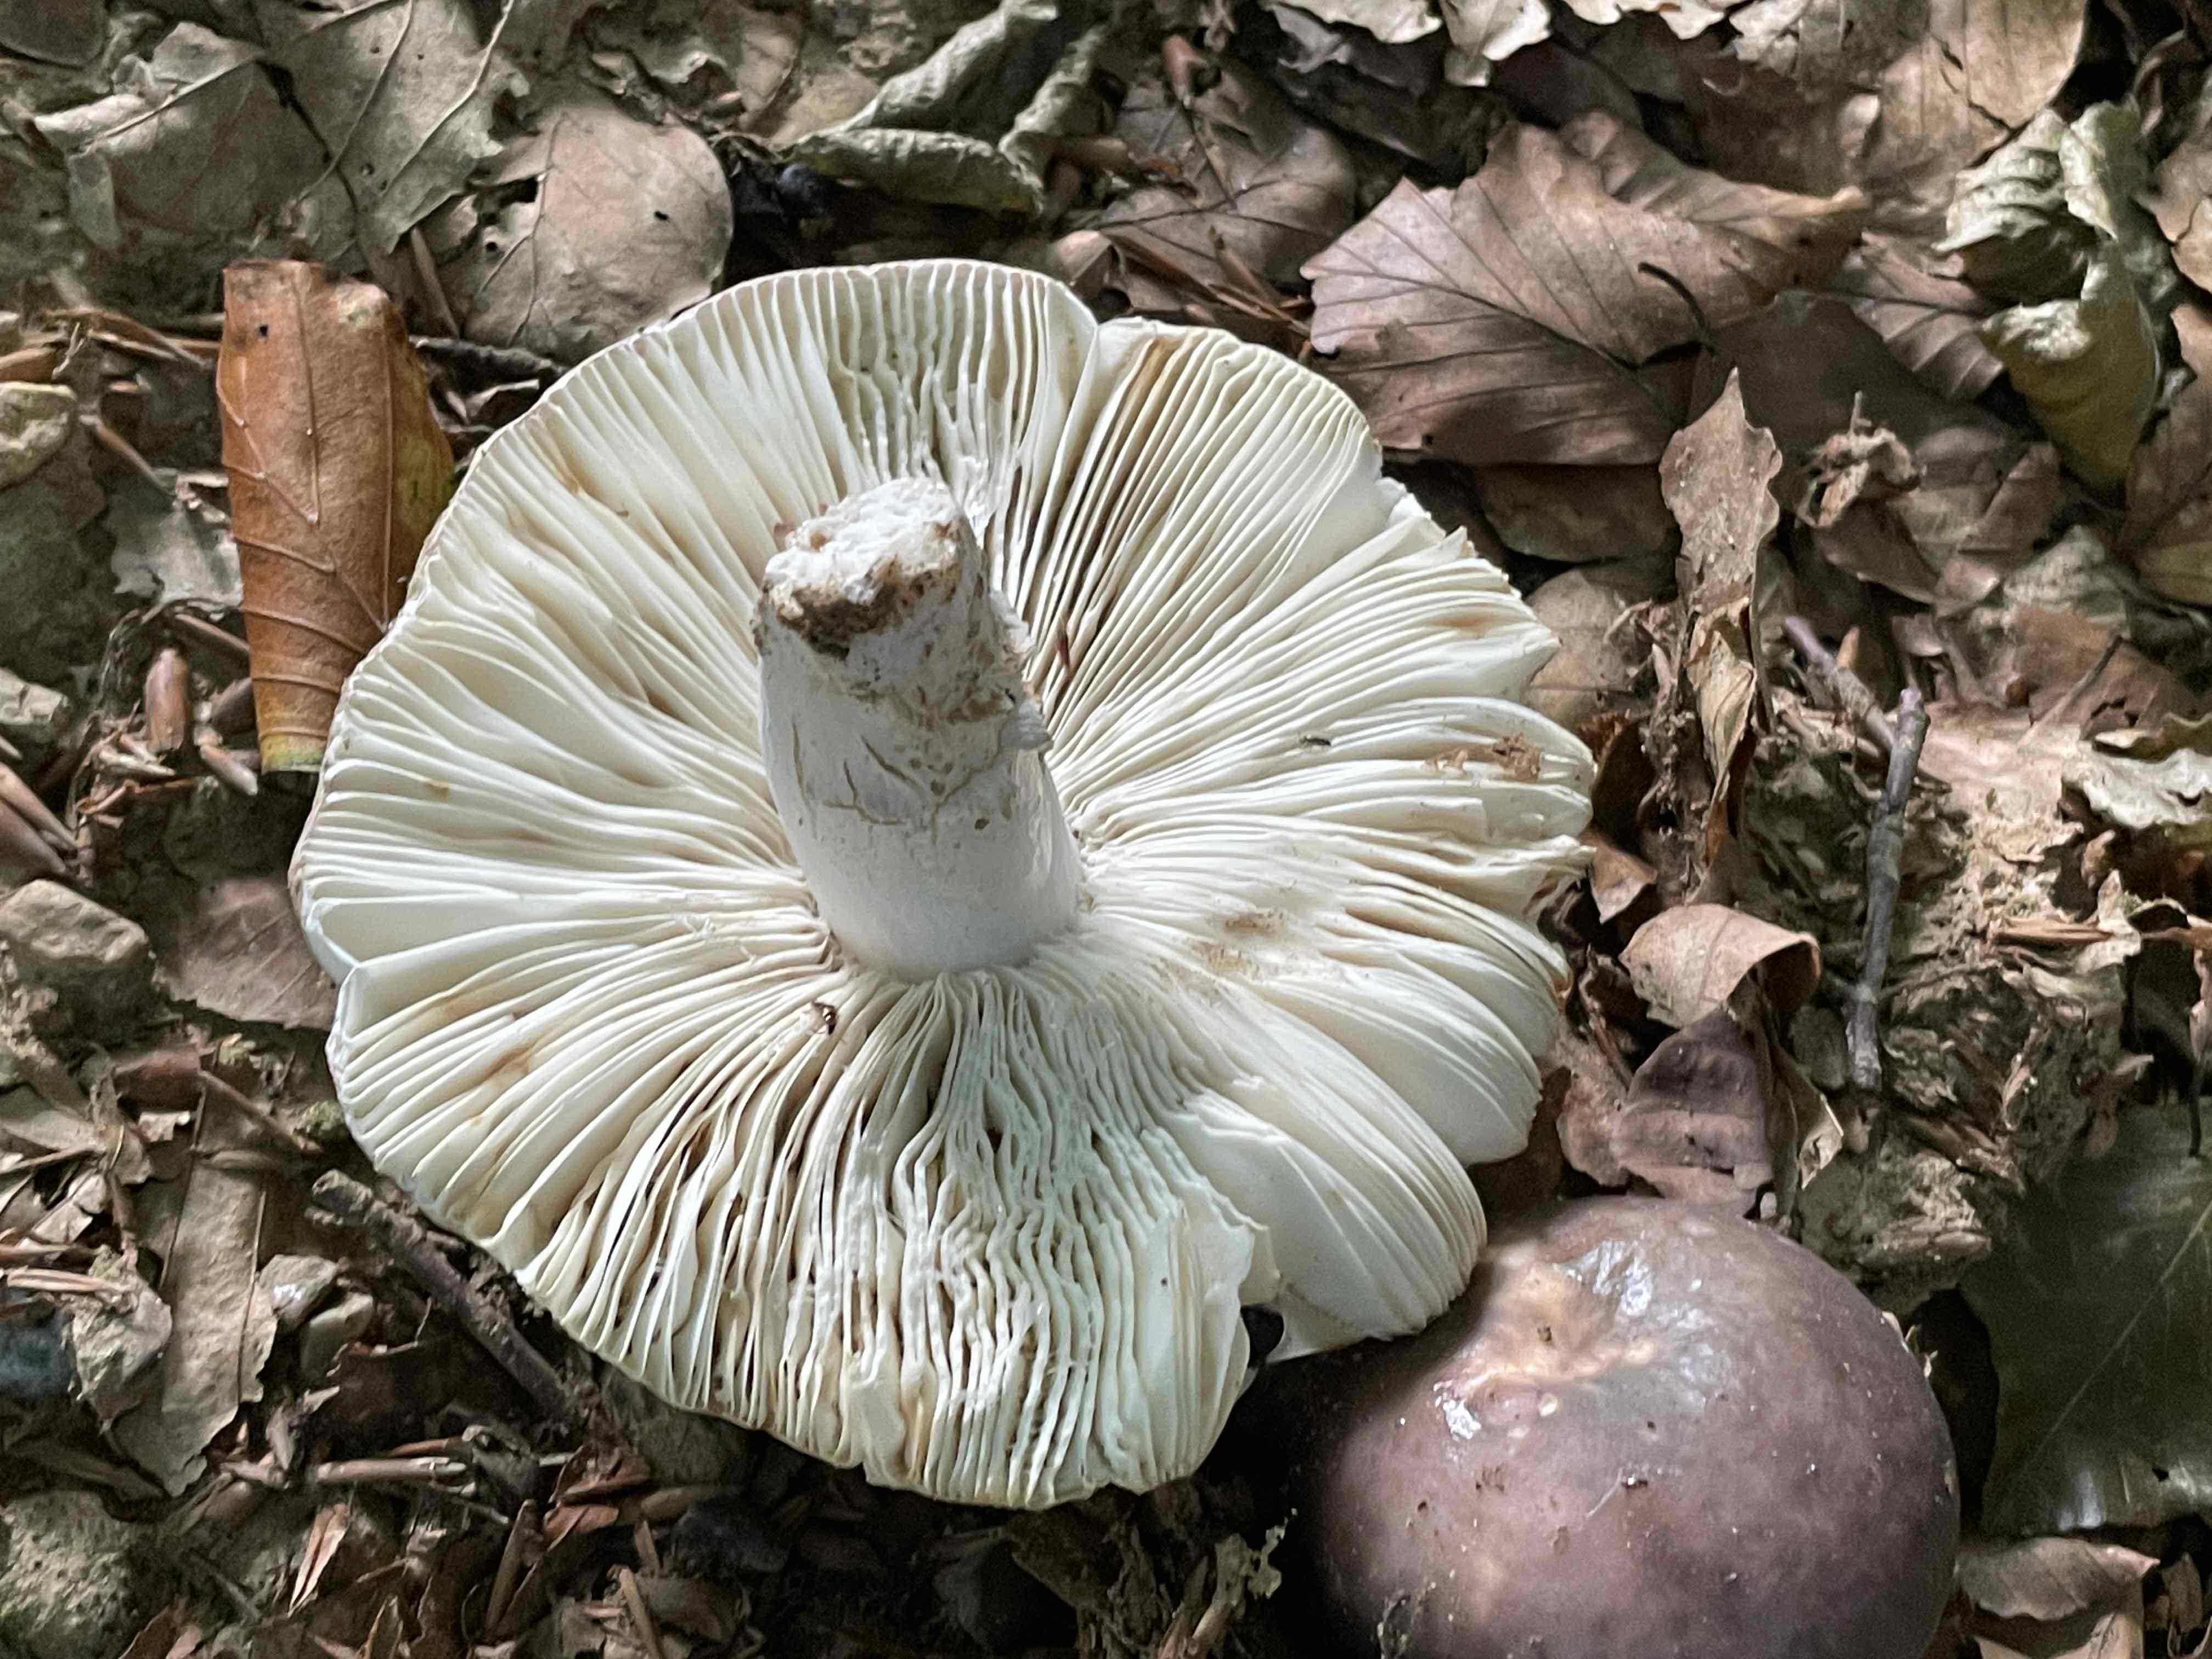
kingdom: Fungi
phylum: Basidiomycota
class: Agaricomycetes
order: Russulales
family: Russulaceae
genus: Russula
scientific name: Russula cyanoxantha
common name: broget skørhat
